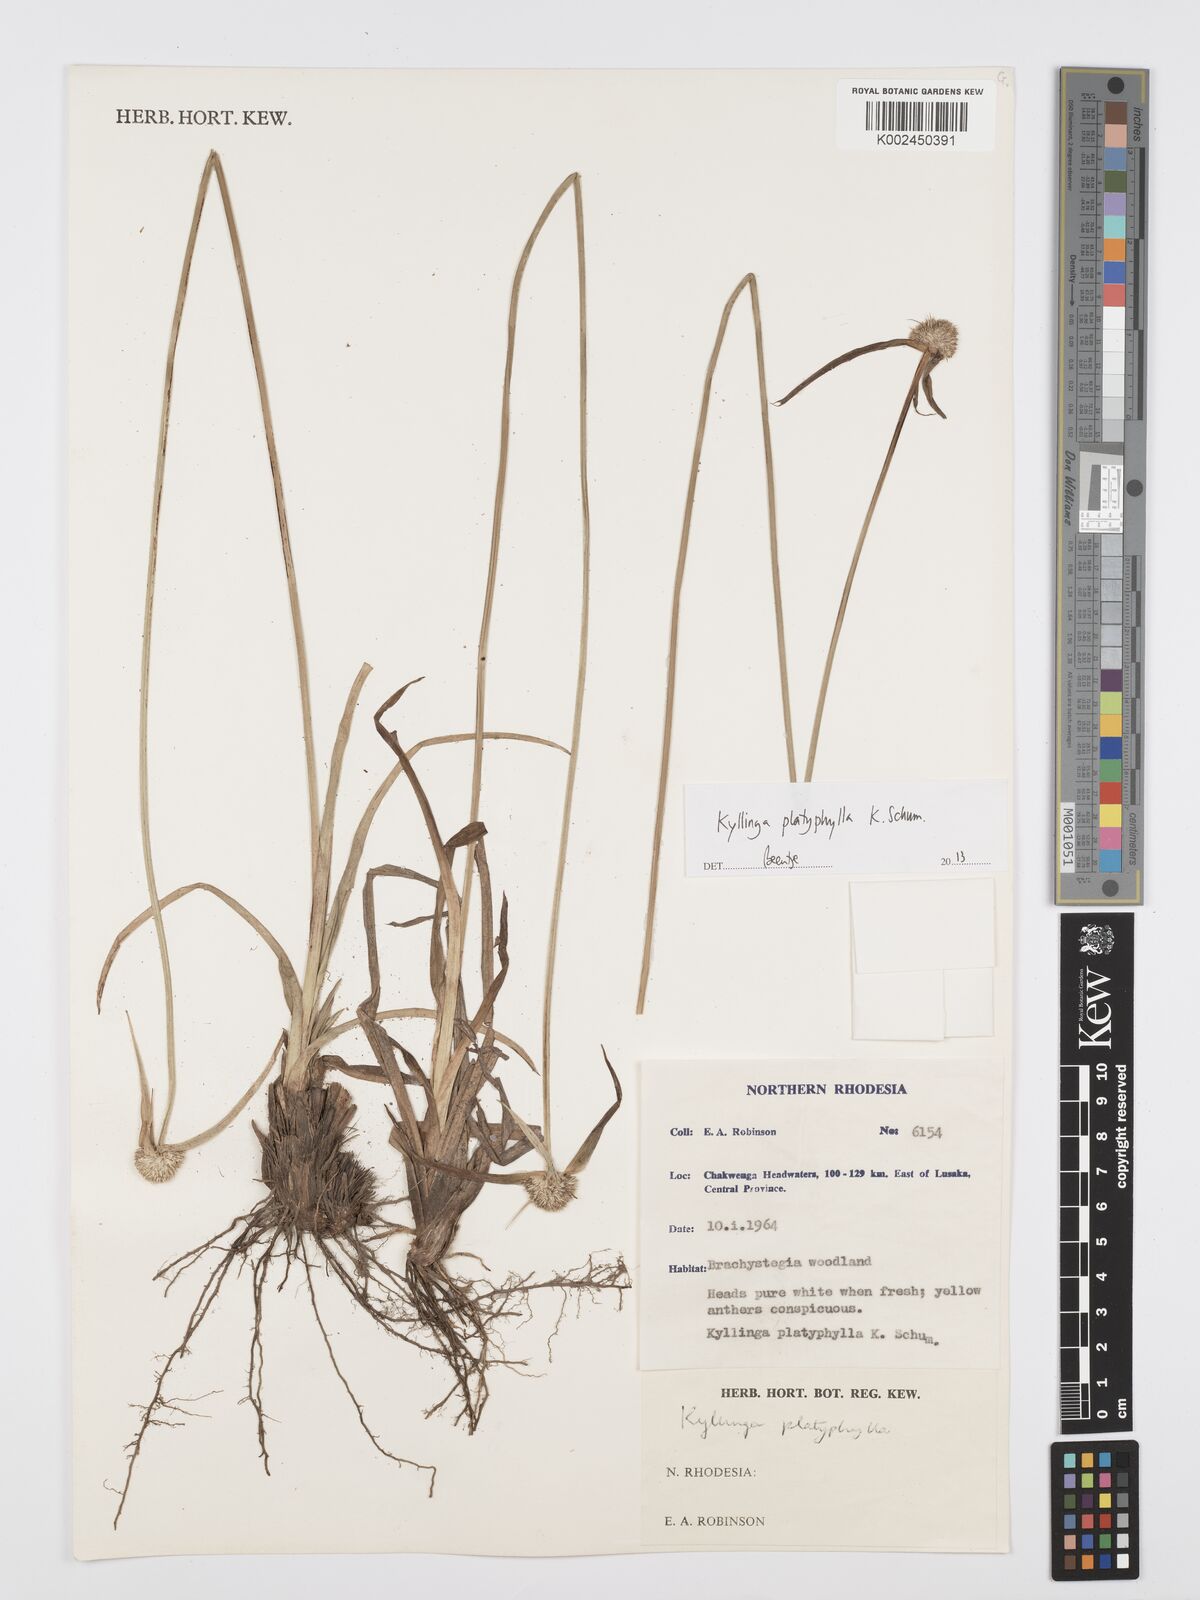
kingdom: Plantae
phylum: Tracheophyta
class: Liliopsida
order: Poales
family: Cyperaceae
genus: Cyperus
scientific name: Cyperus
